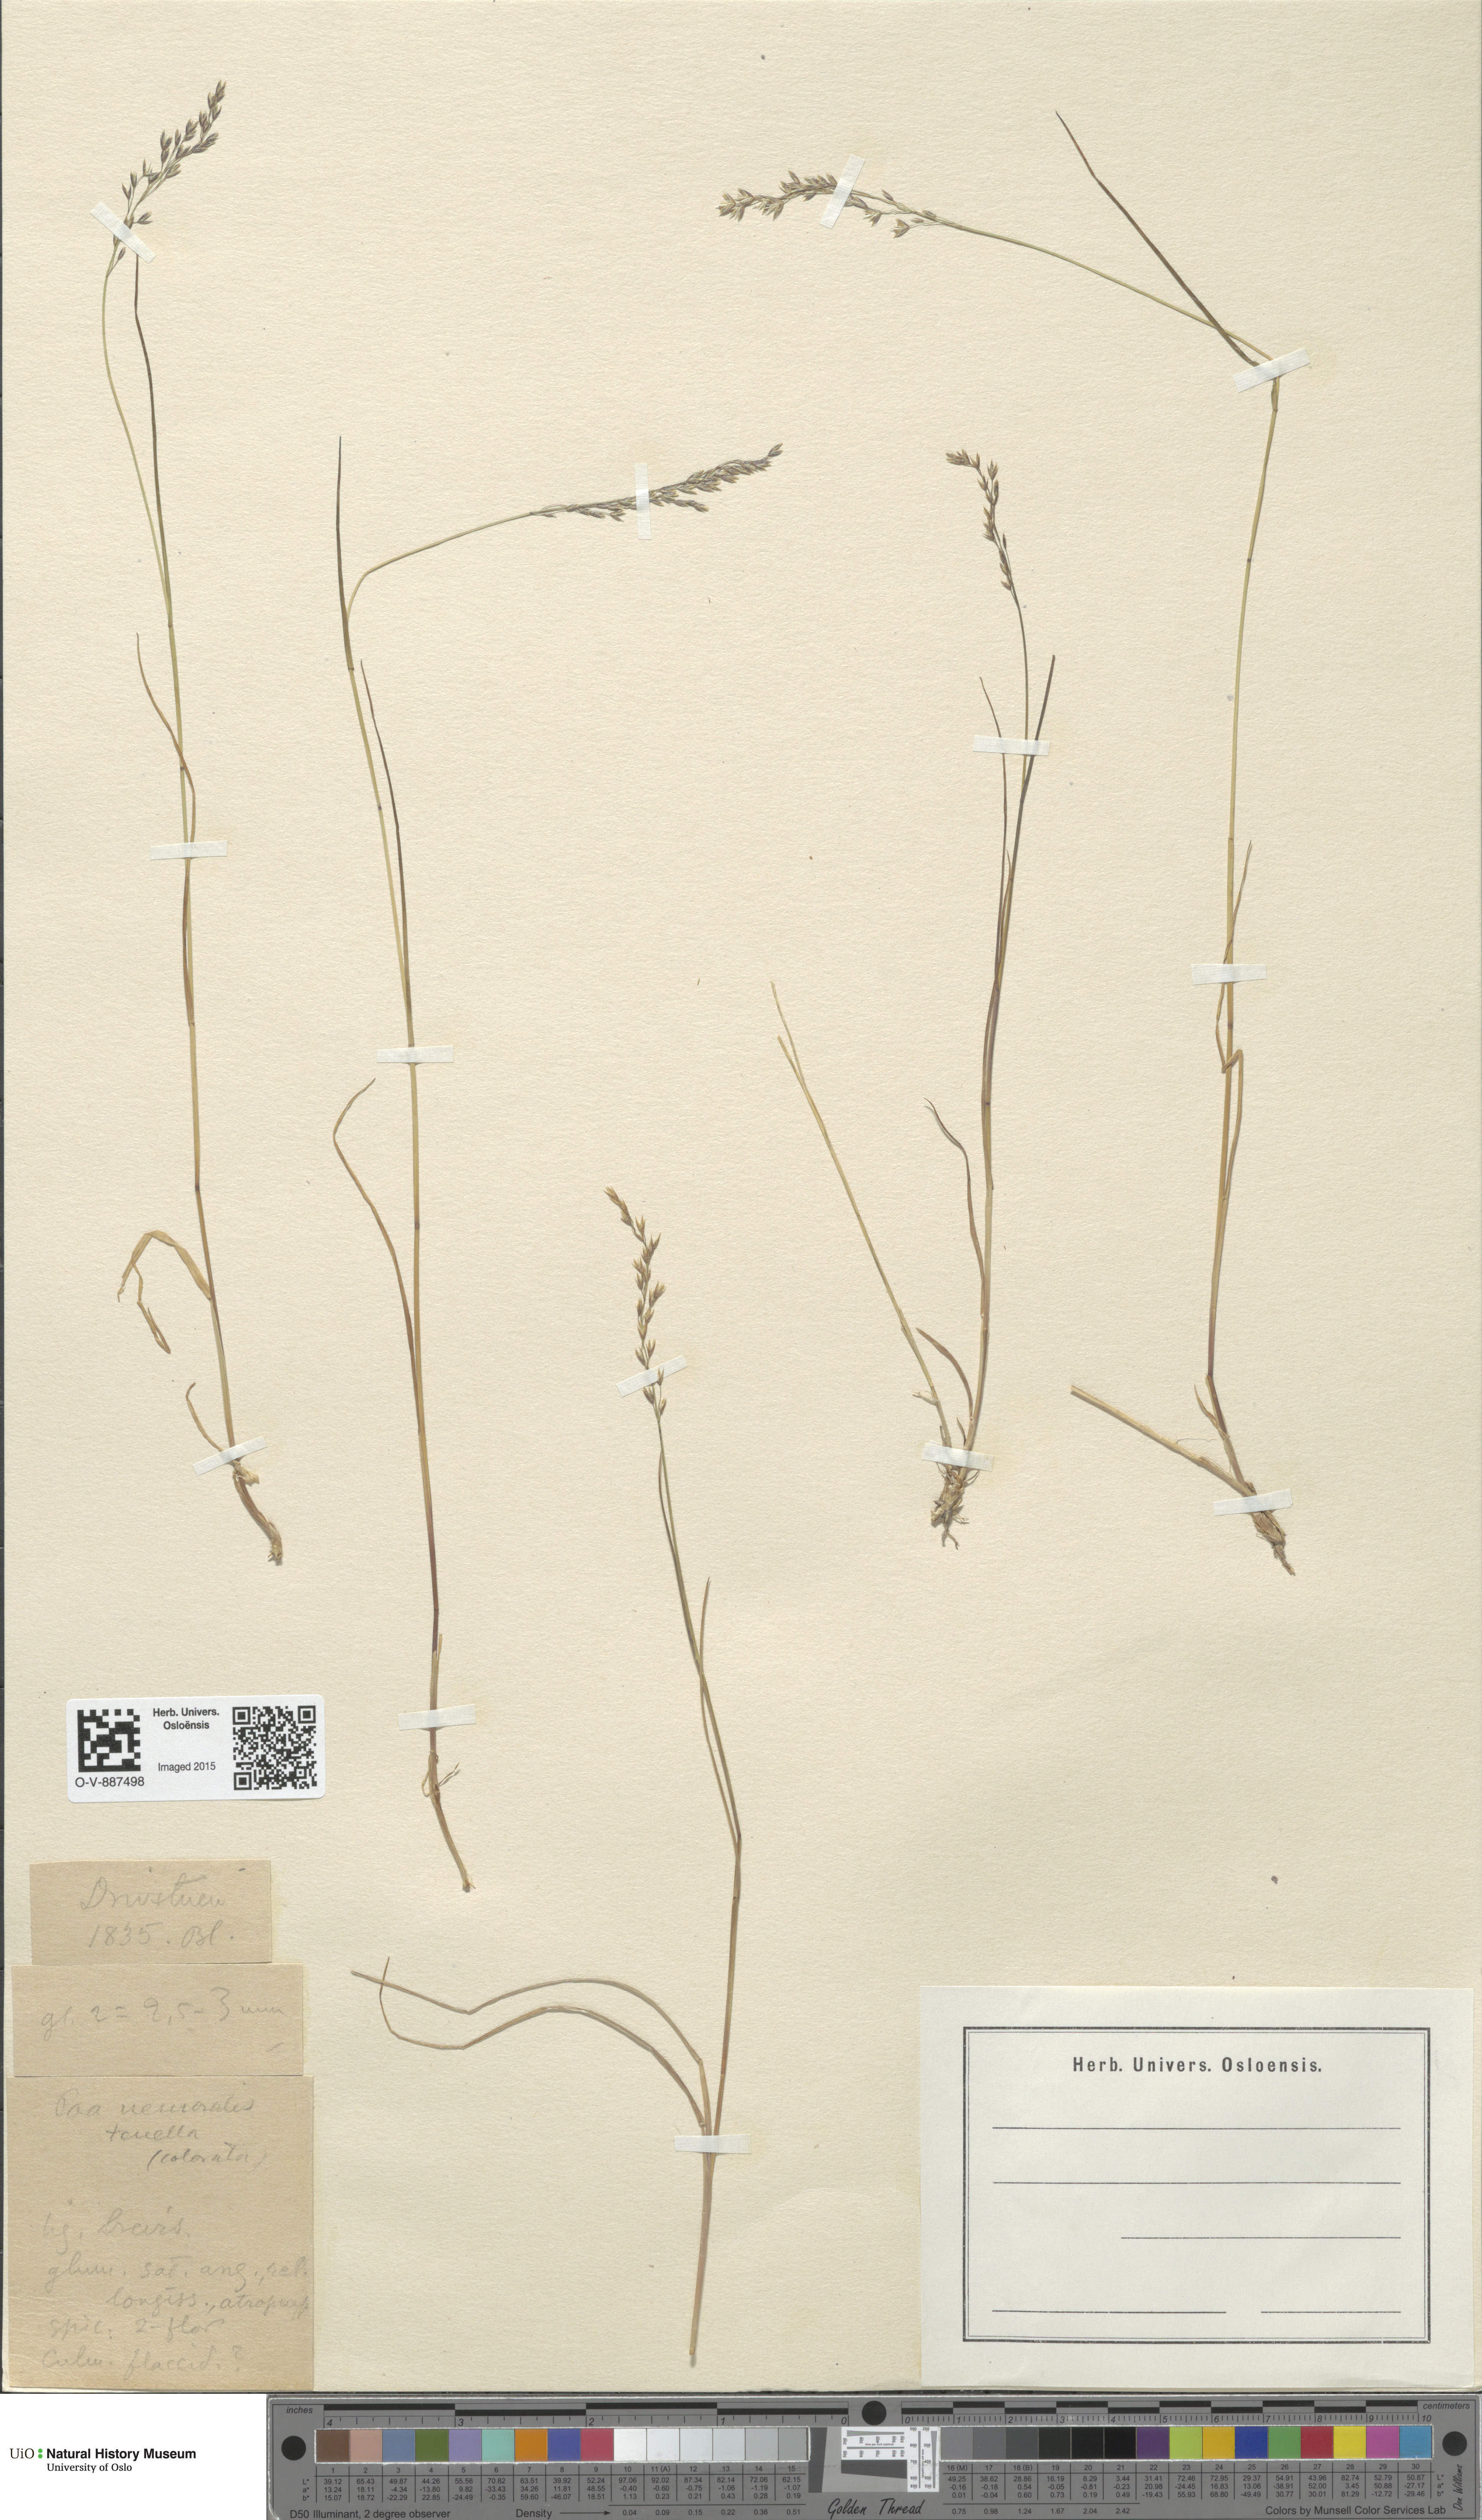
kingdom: Plantae
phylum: Tracheophyta
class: Liliopsida
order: Poales
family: Poaceae
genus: Poa
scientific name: Poa nemoralis
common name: Wood bluegrass
